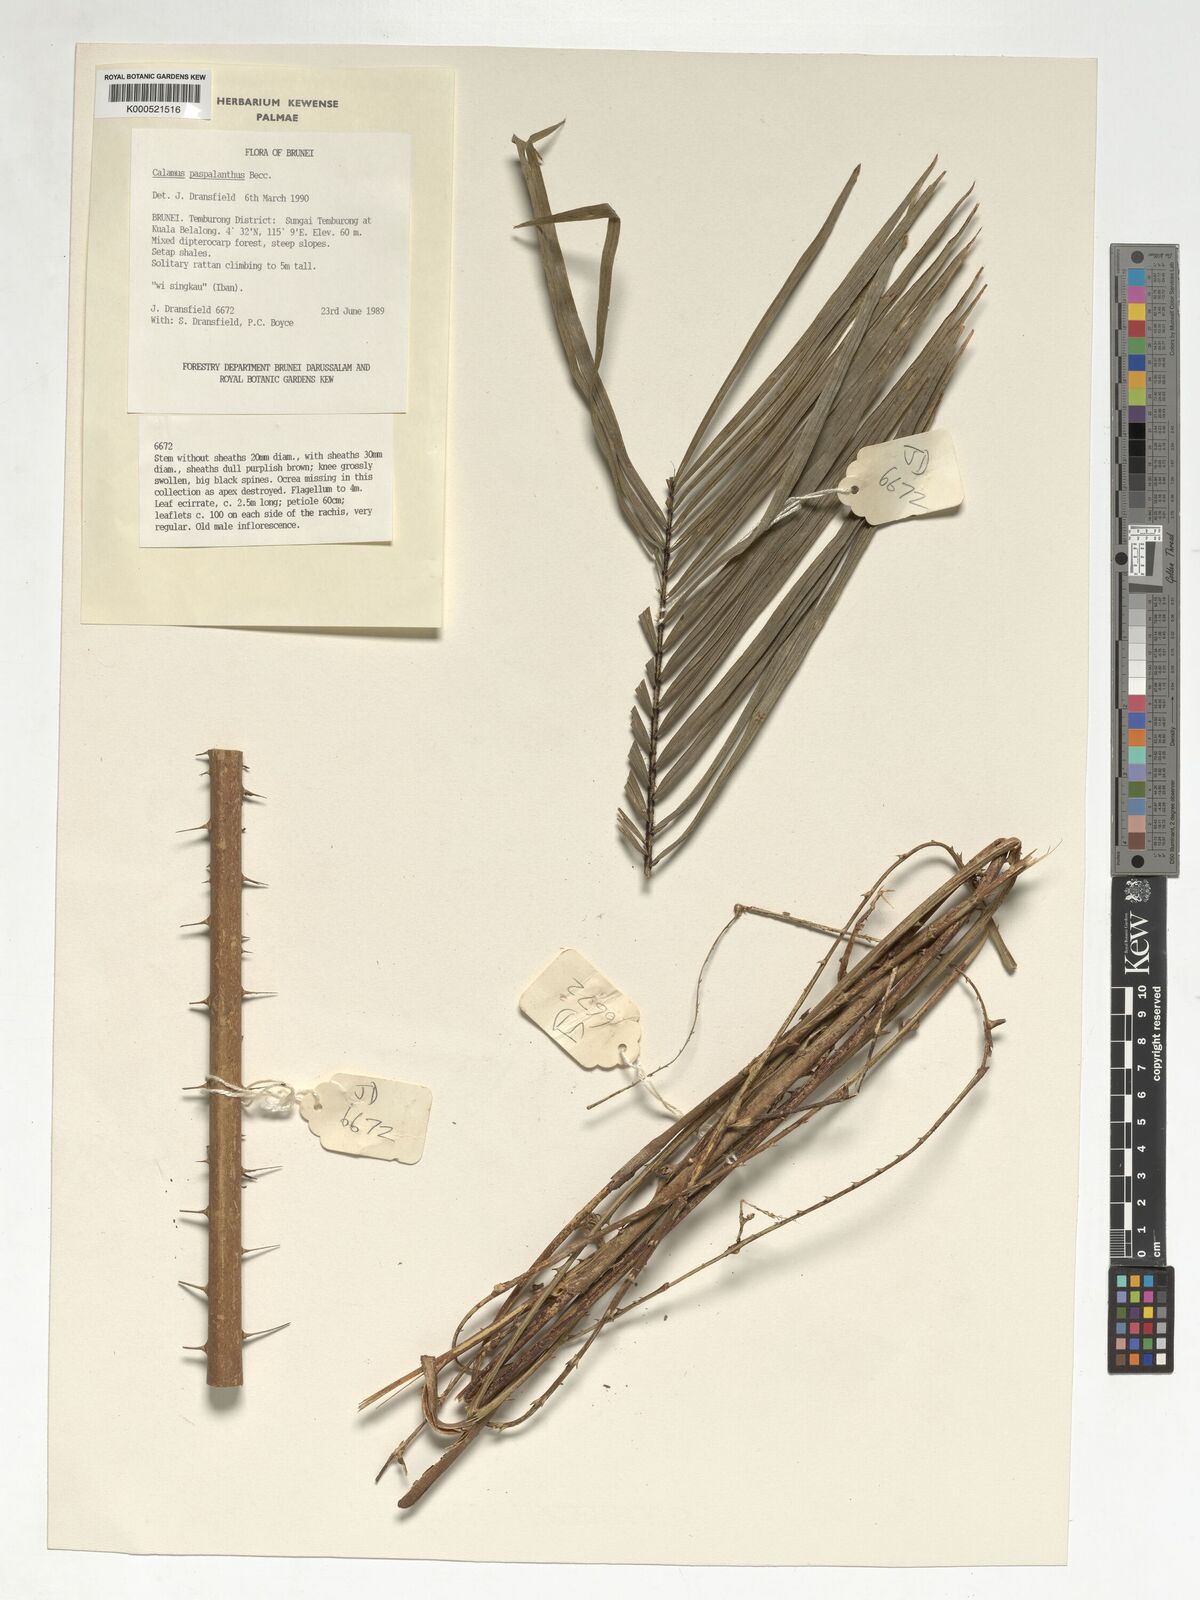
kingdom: Plantae
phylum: Tracheophyta
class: Liliopsida
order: Arecales
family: Arecaceae
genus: Calamus
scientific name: Calamus paspalanthus
